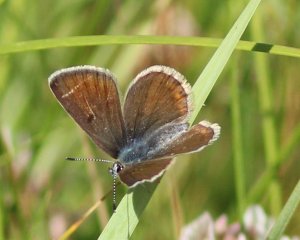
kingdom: Animalia
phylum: Arthropoda
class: Insecta
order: Lepidoptera
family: Lycaenidae
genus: Plebejus
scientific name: Plebejus saepiolus
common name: Greenish Blue
